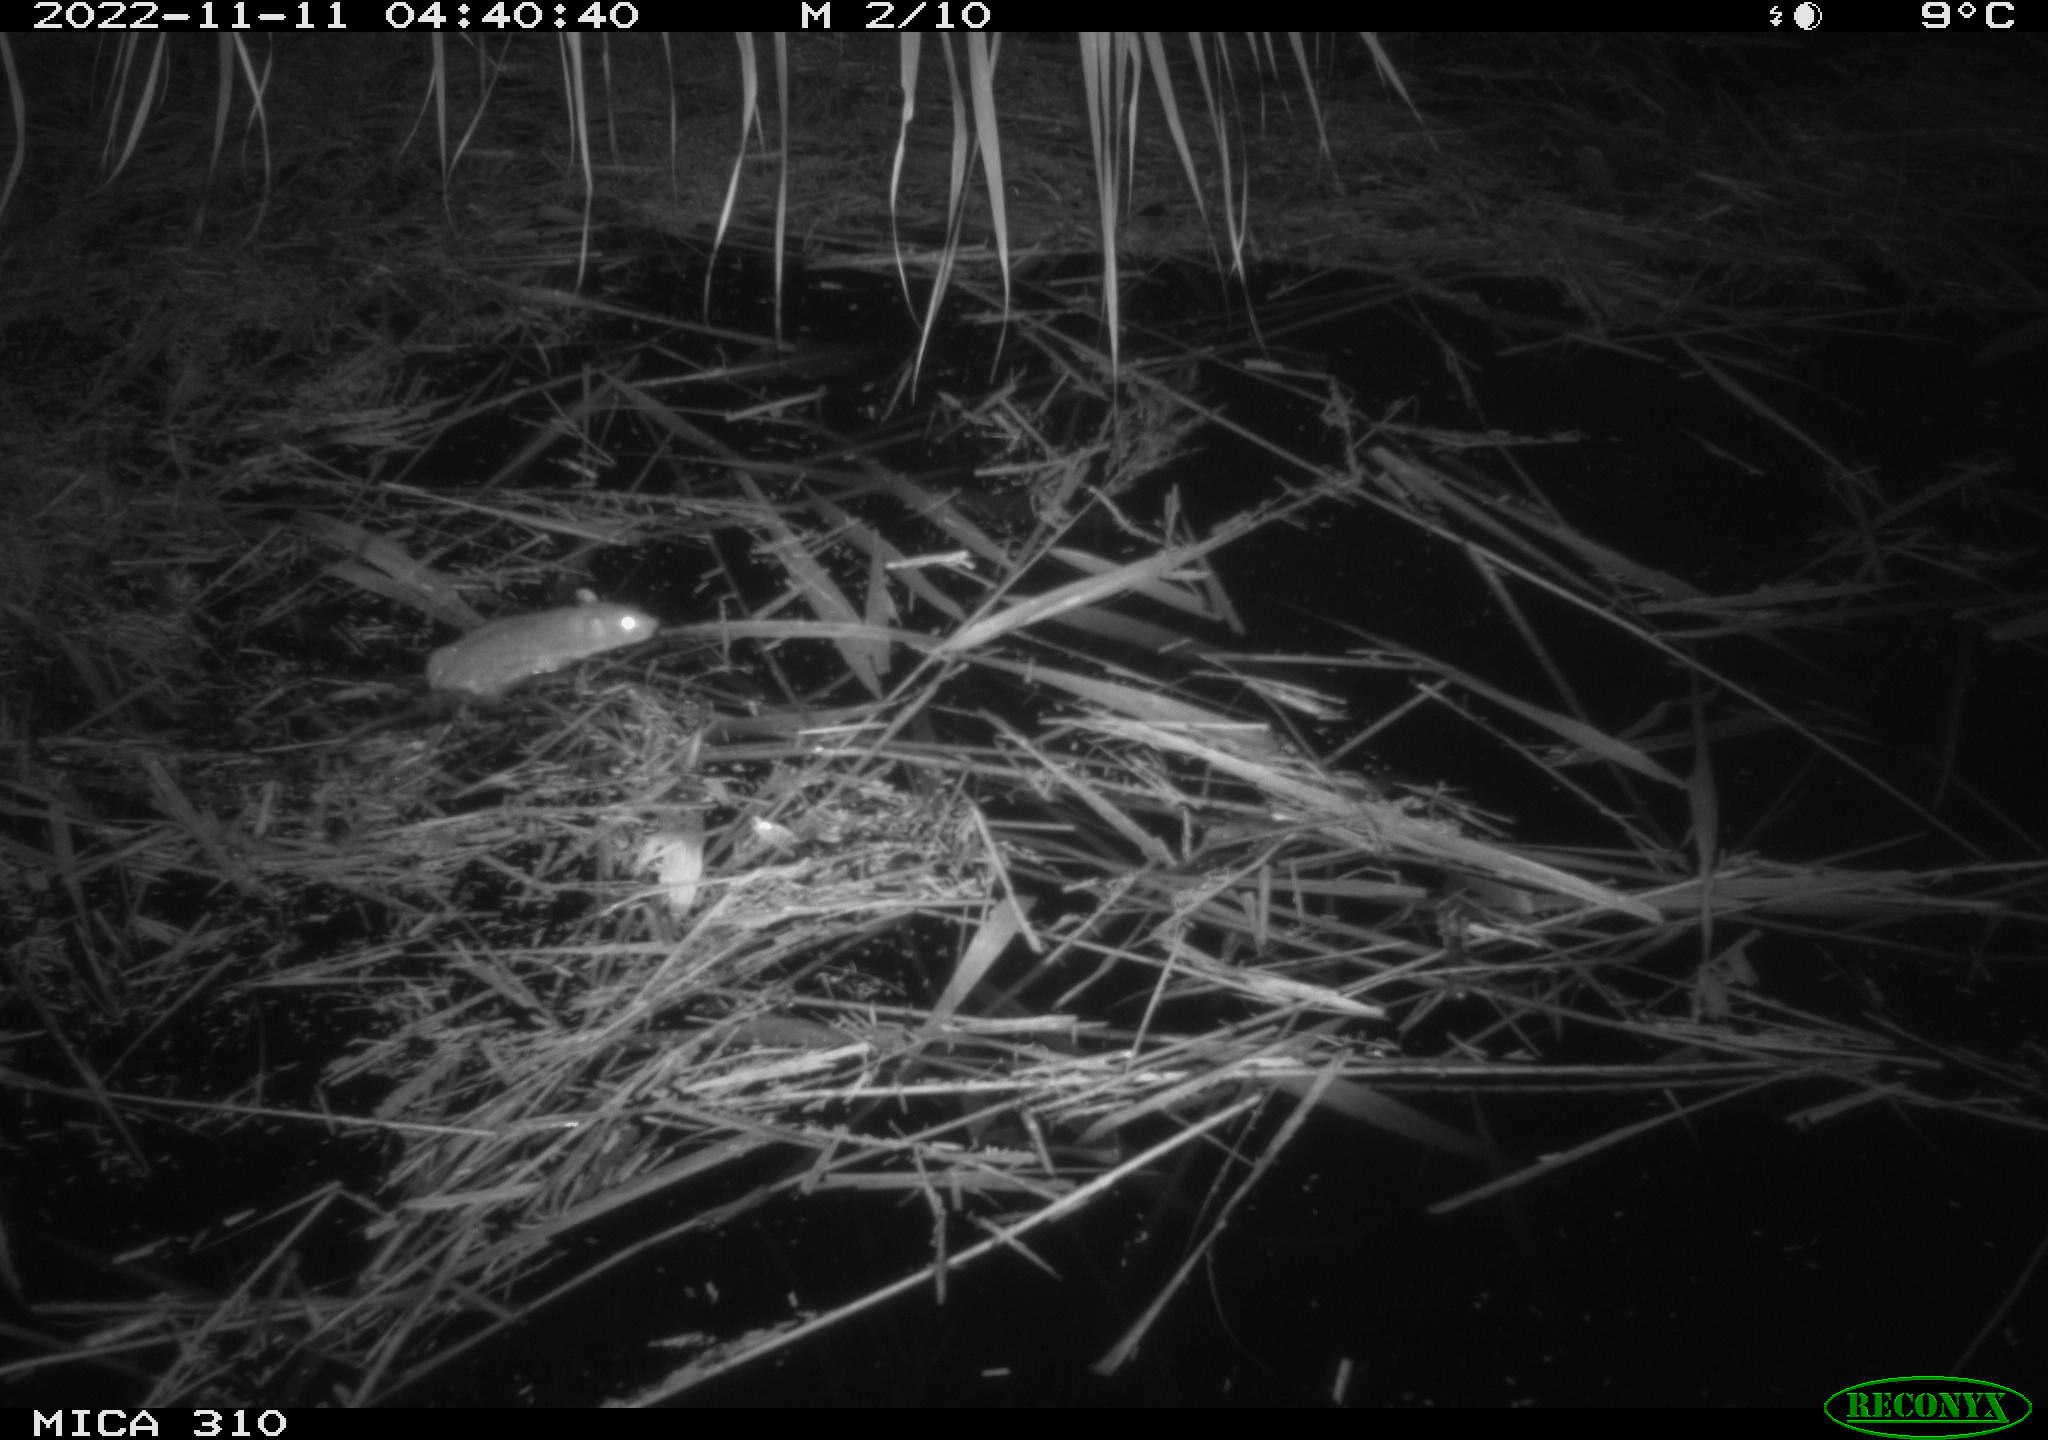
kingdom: Animalia
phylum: Chordata
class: Mammalia
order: Rodentia
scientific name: Rodentia
